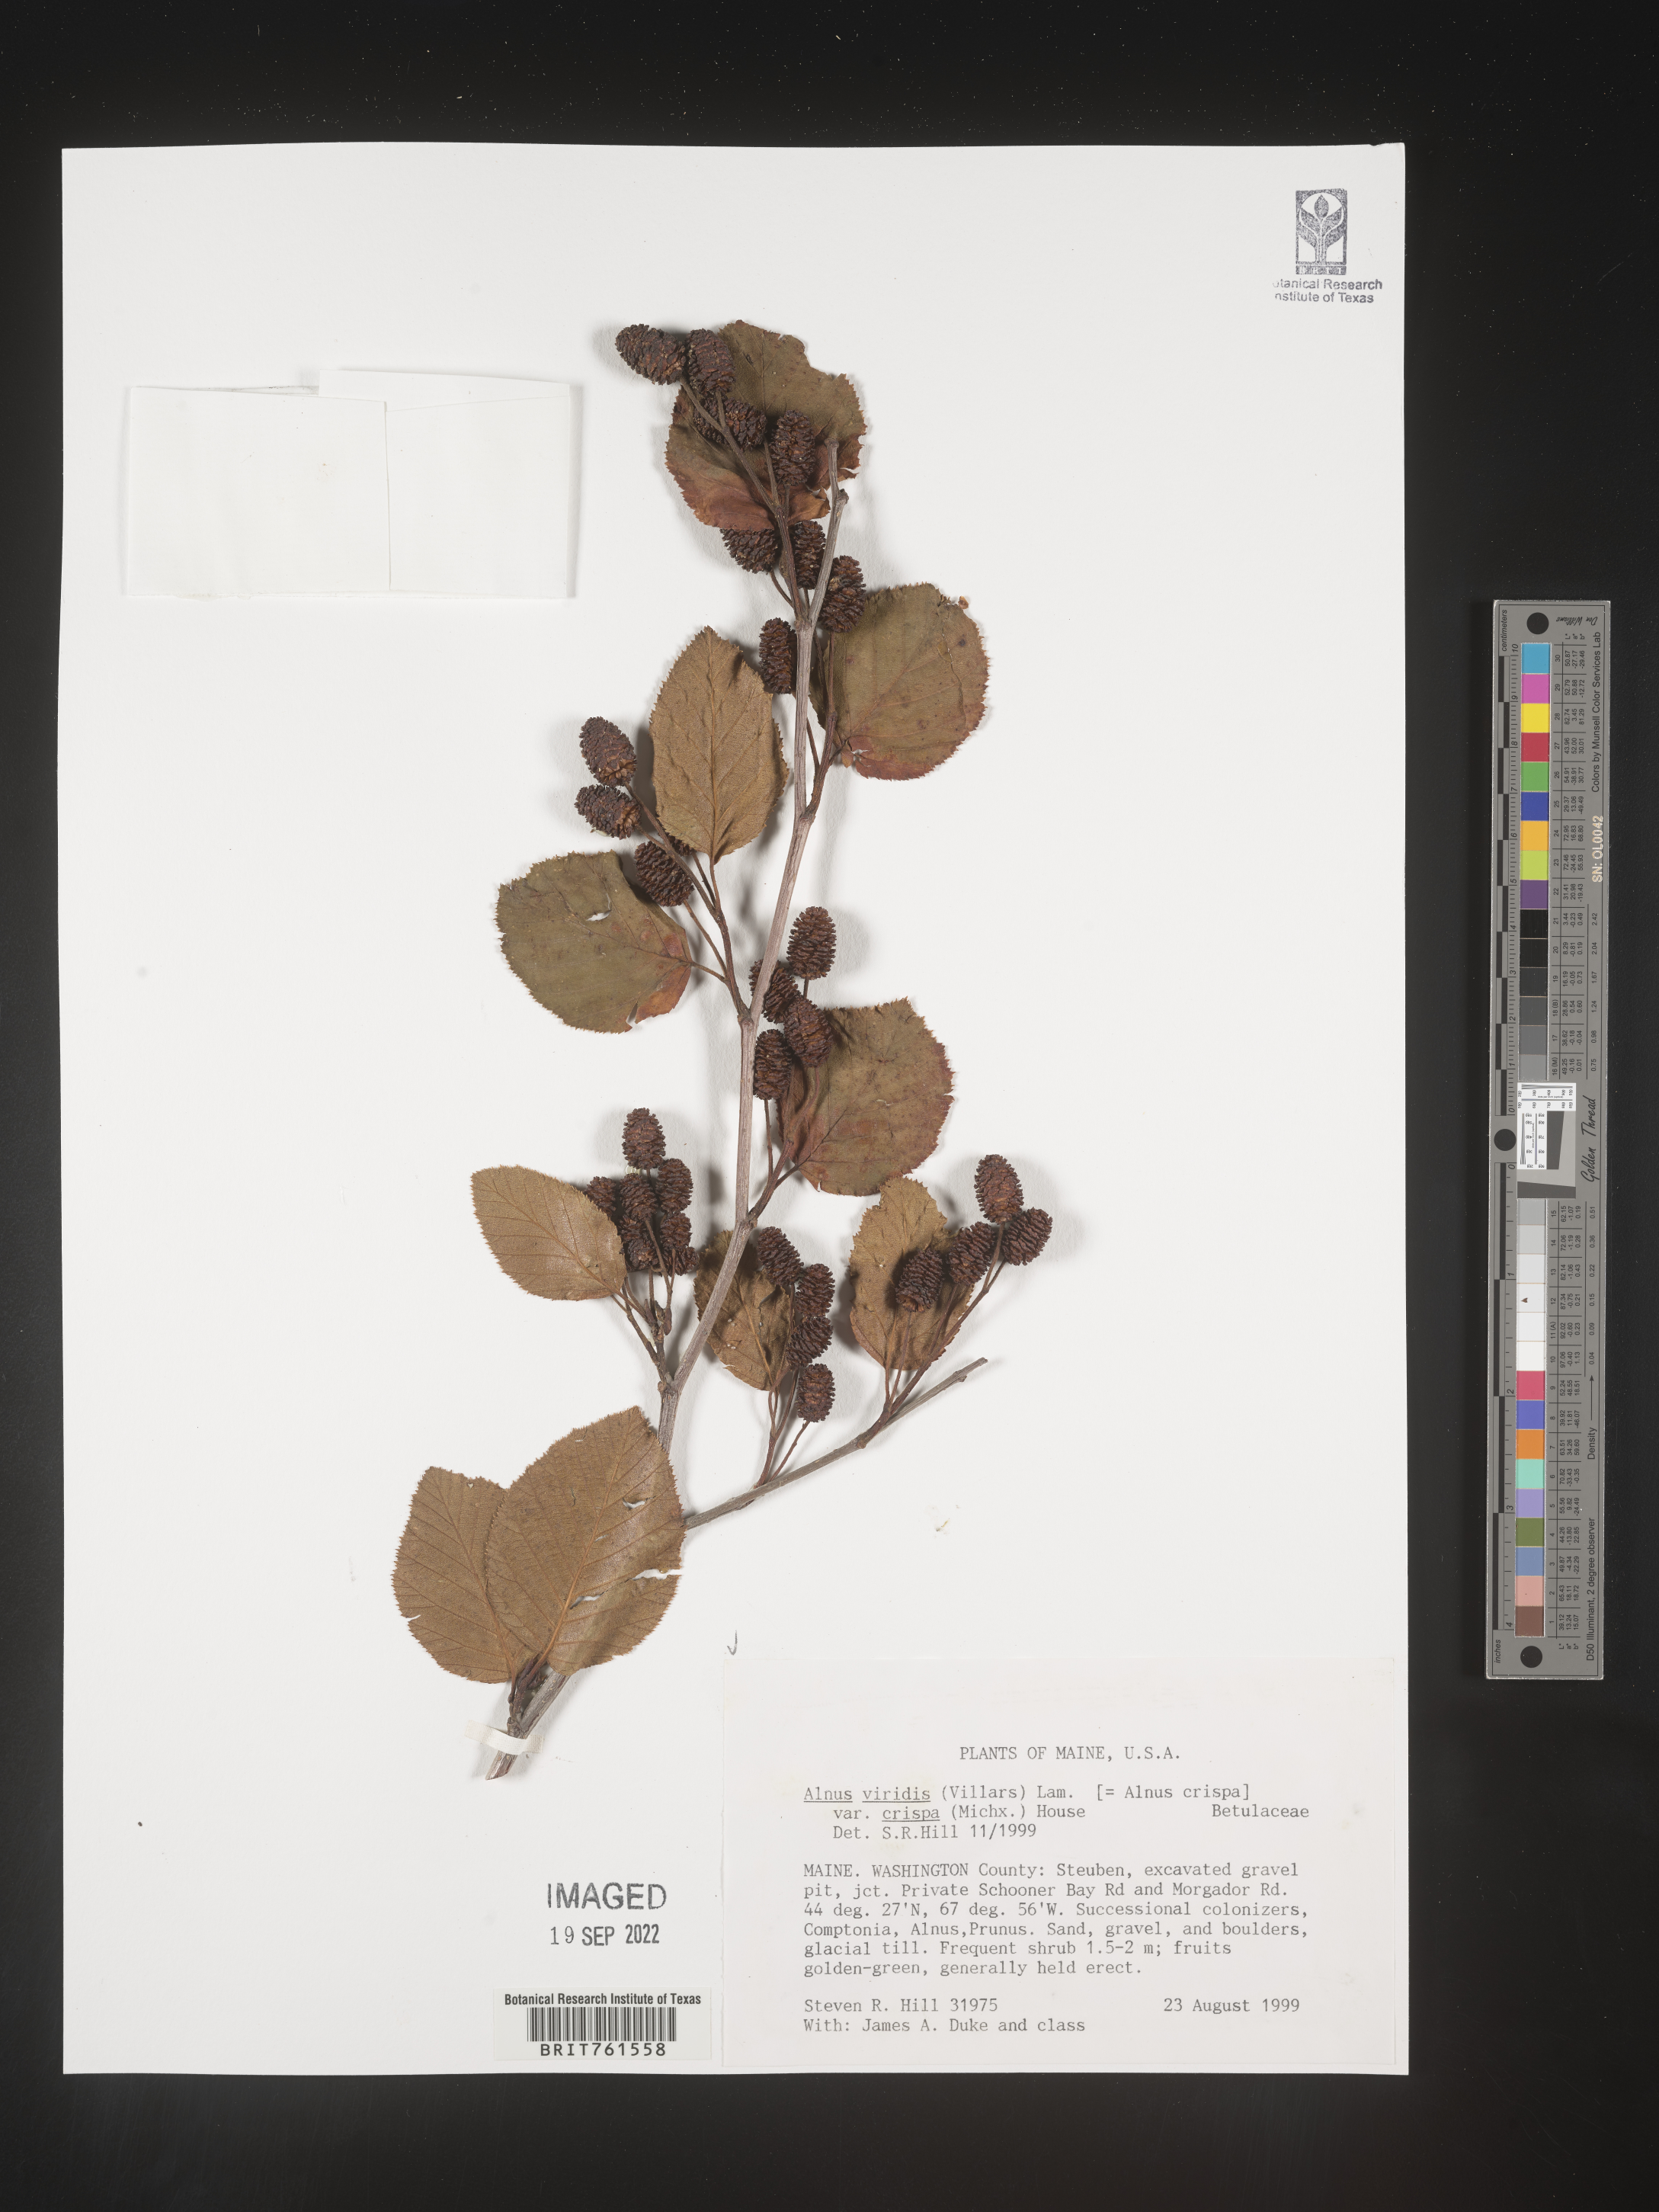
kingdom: Plantae
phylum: Tracheophyta
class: Magnoliopsida
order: Fagales
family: Betulaceae
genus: Alnus
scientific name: Alnus alnobetula
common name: Green alder
